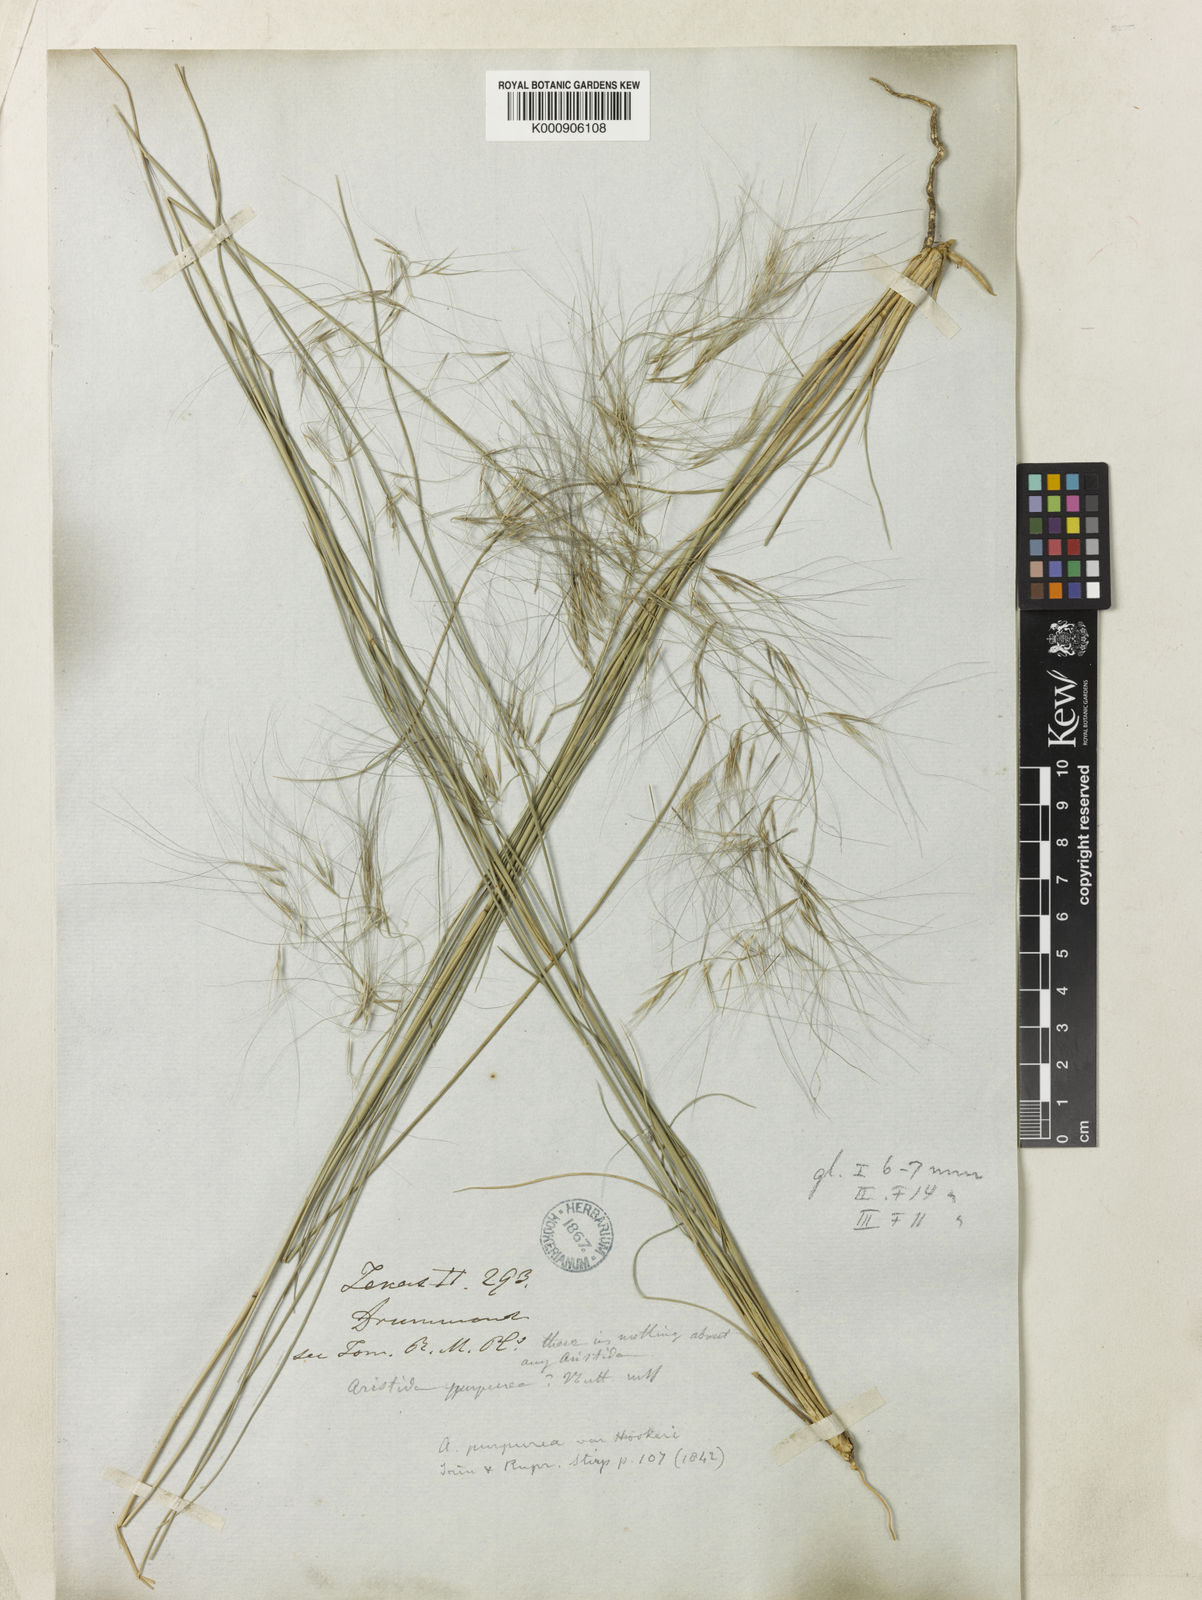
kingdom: Plantae
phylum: Tracheophyta
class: Liliopsida
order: Poales
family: Poaceae
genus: Aristida
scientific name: Aristida purpurea
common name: Purple threeawn
